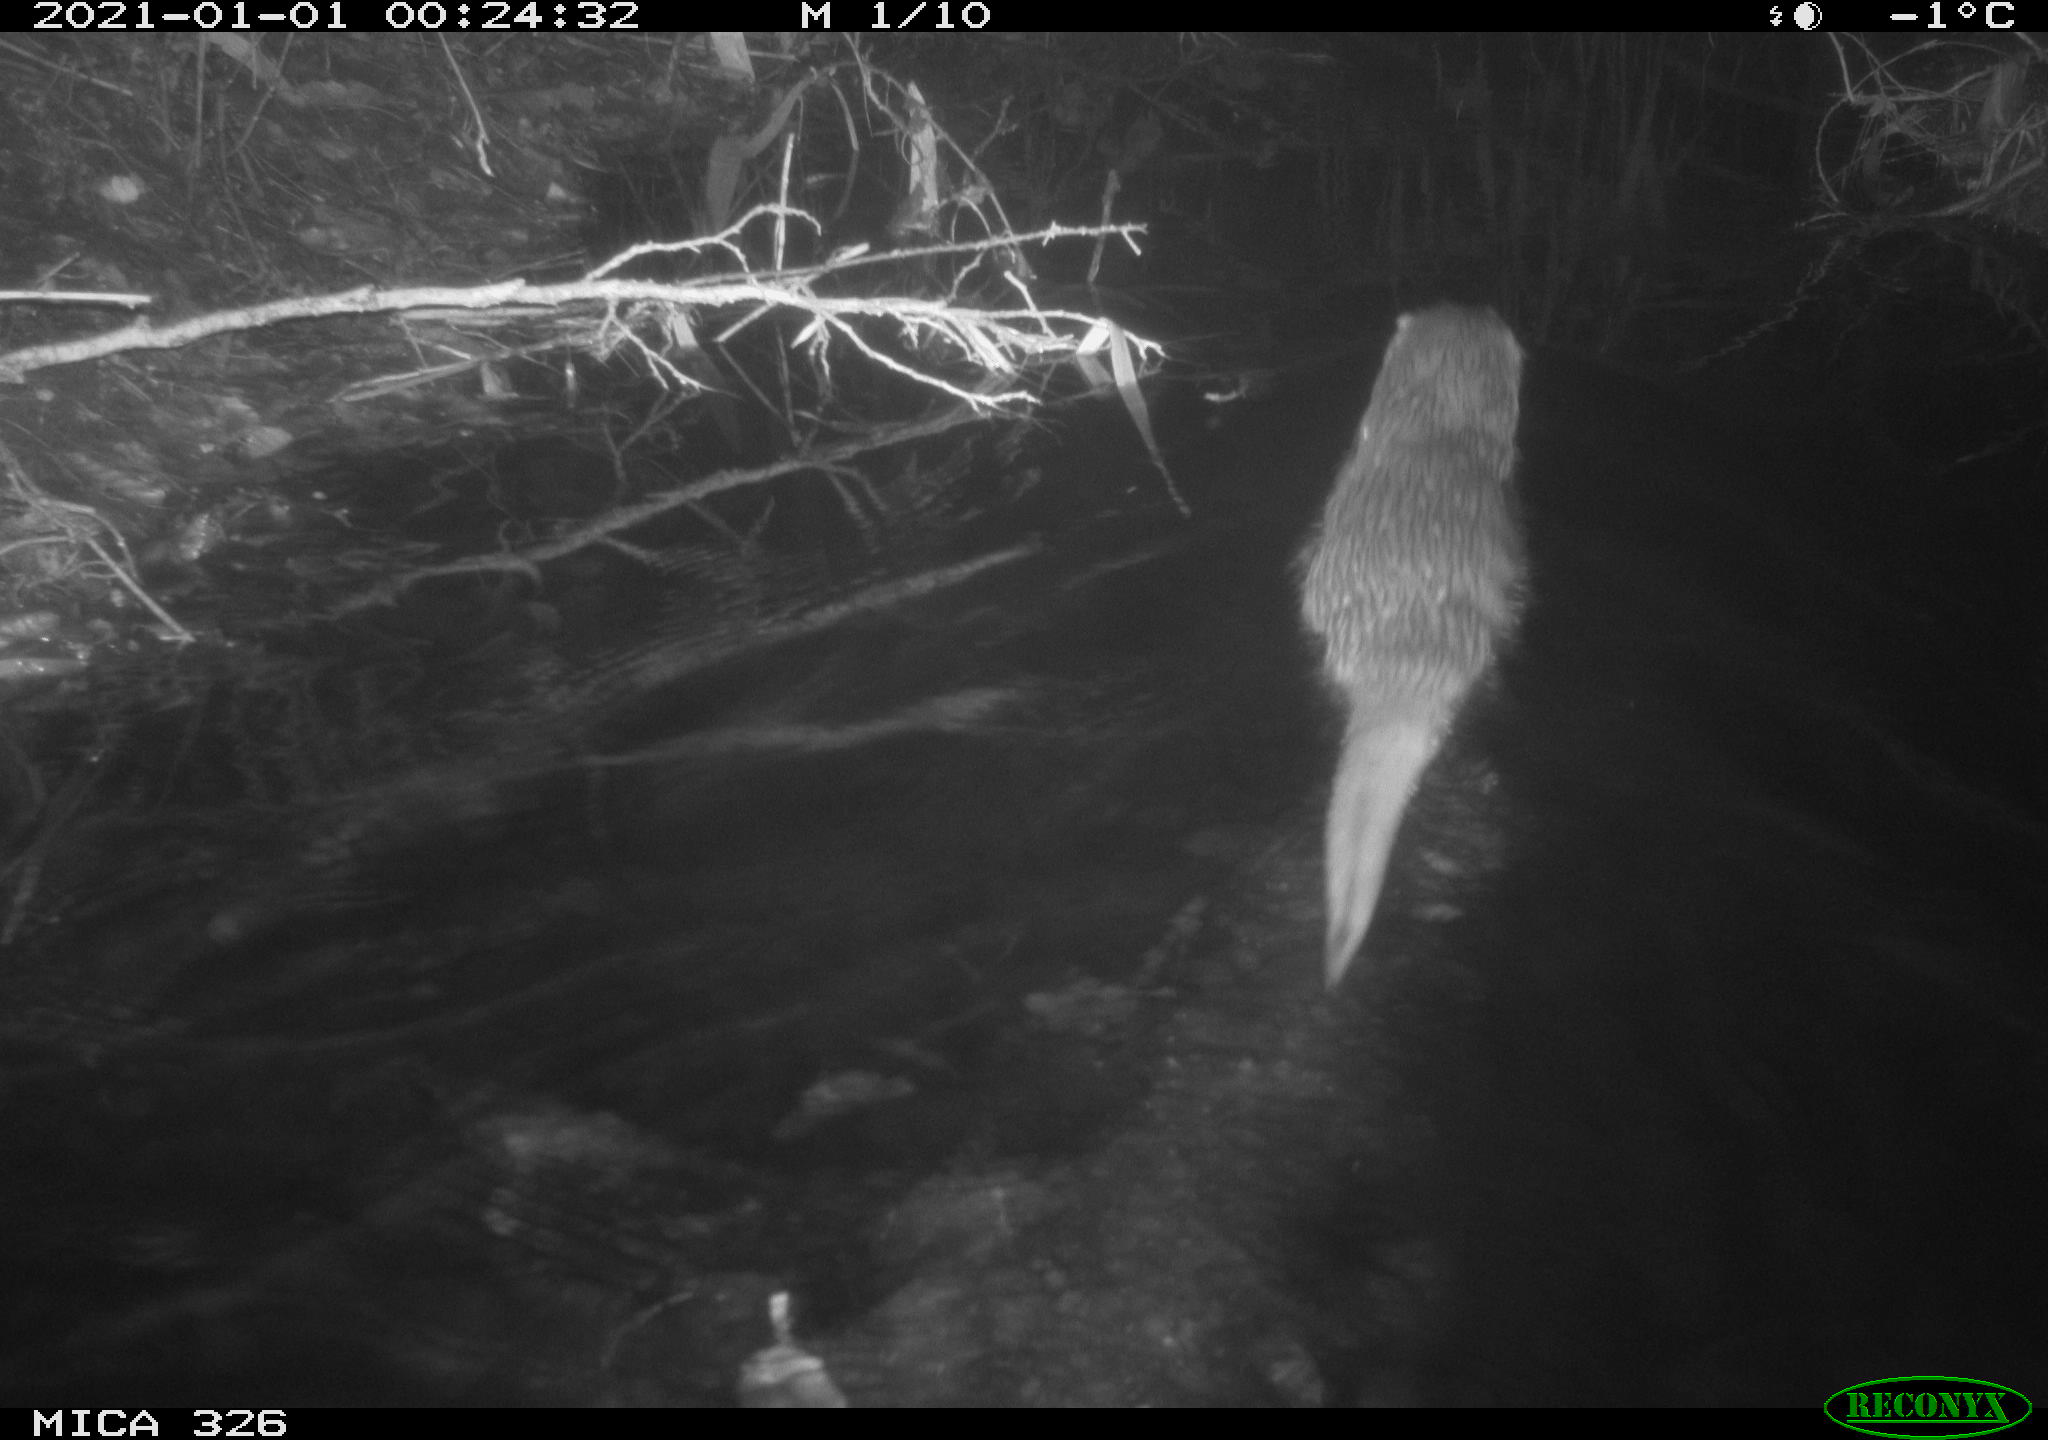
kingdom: Animalia
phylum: Chordata
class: Mammalia
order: Carnivora
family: Mustelidae
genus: Lutra
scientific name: Lutra lutra
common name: European otter
